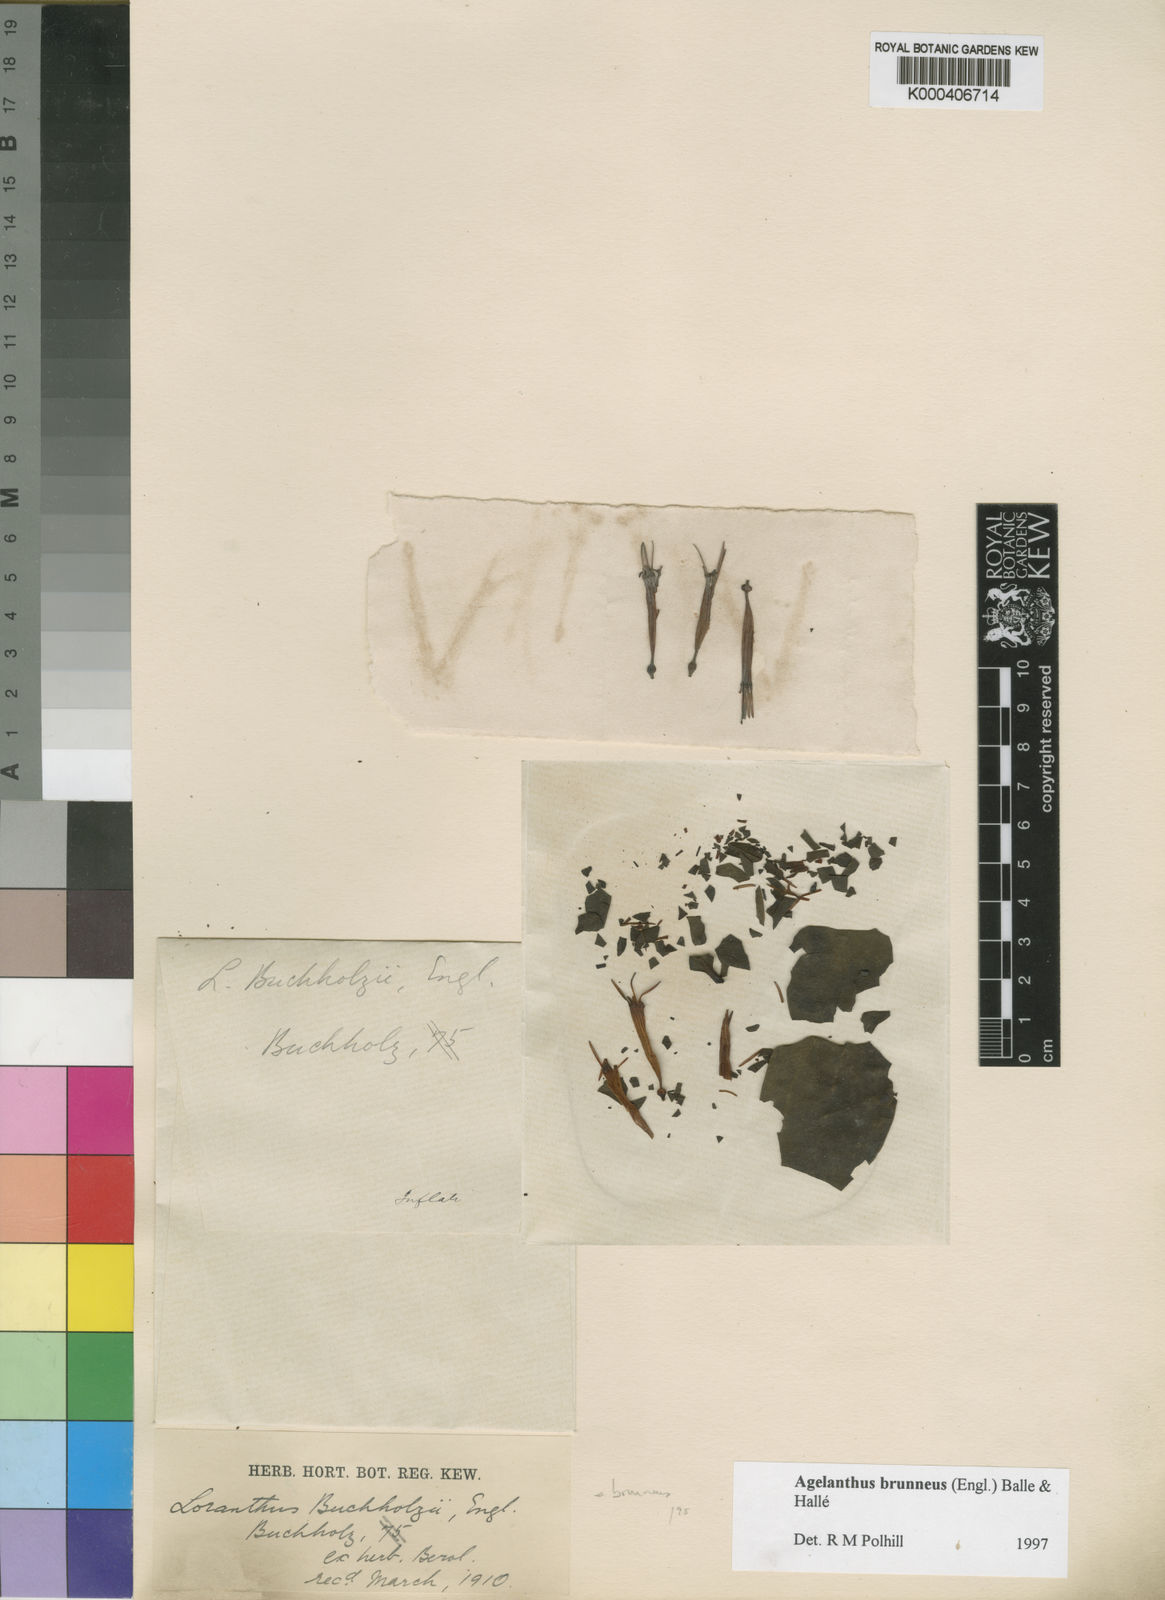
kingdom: Plantae
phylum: Tracheophyta
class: Magnoliopsida
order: Santalales
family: Loranthaceae
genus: Agelanthus
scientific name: Agelanthus
